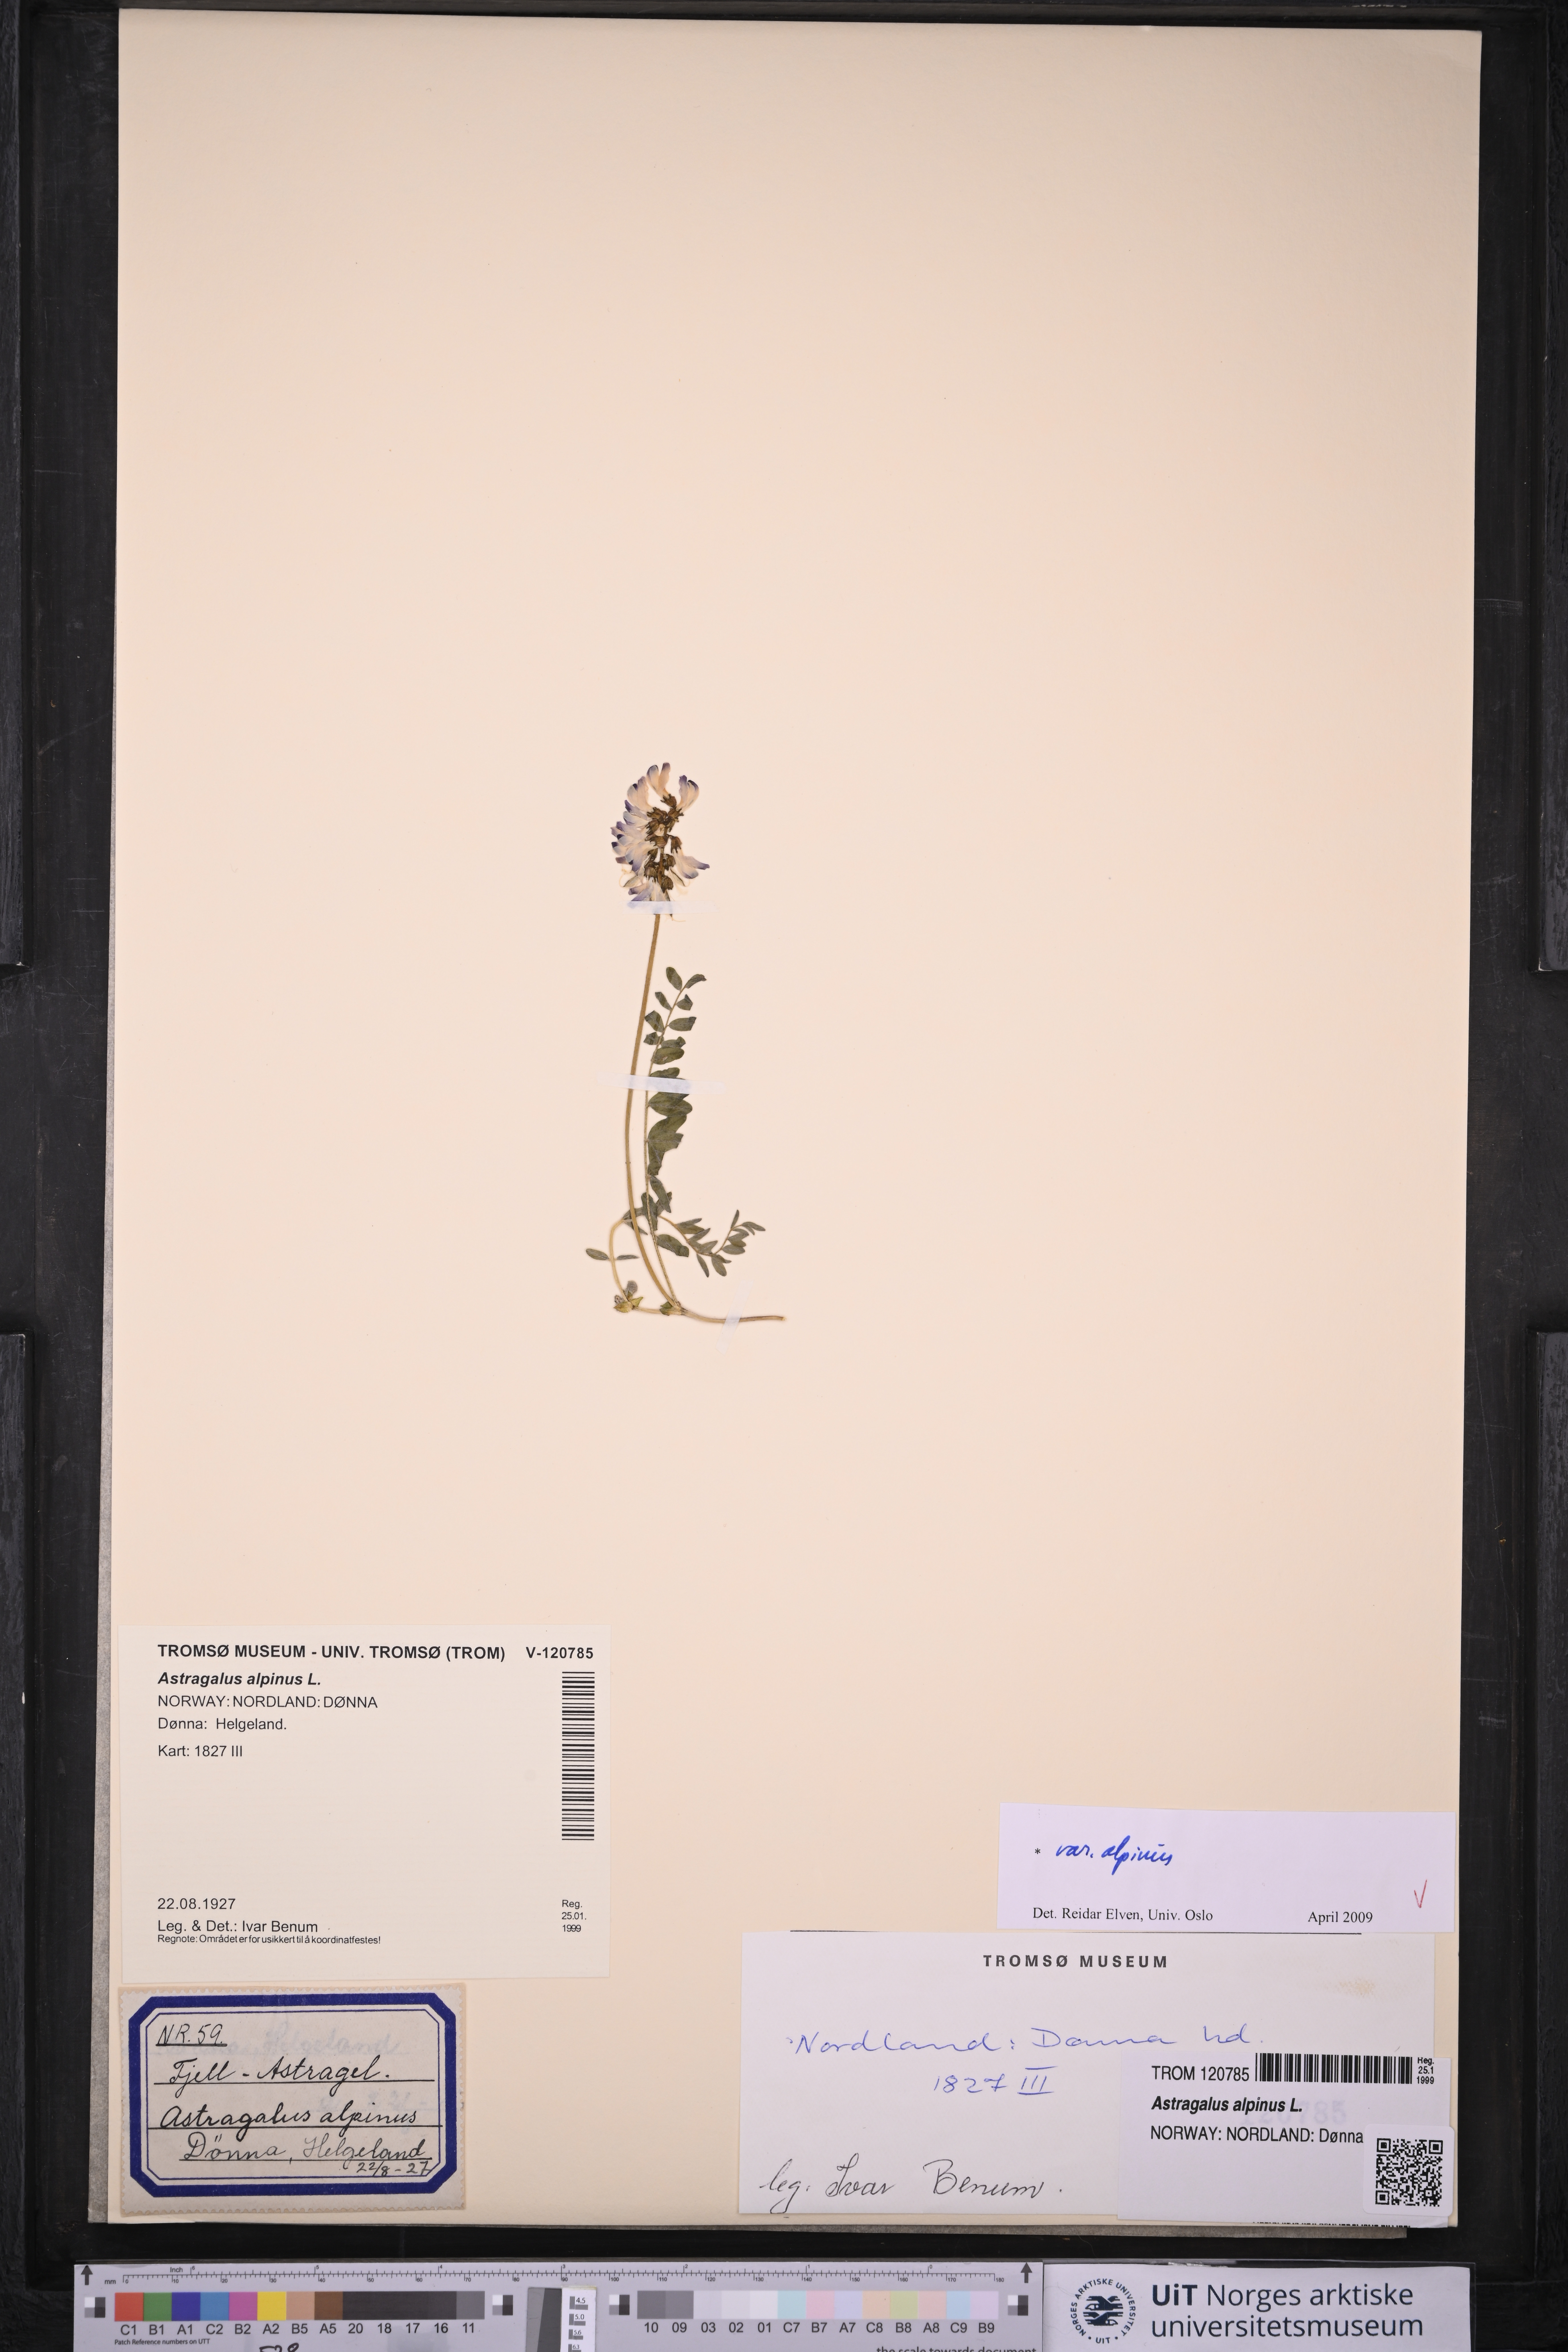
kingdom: Plantae
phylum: Tracheophyta
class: Magnoliopsida
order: Fabales
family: Fabaceae
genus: Astragalus
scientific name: Astragalus alpinus
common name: Alpine milk-vetch
